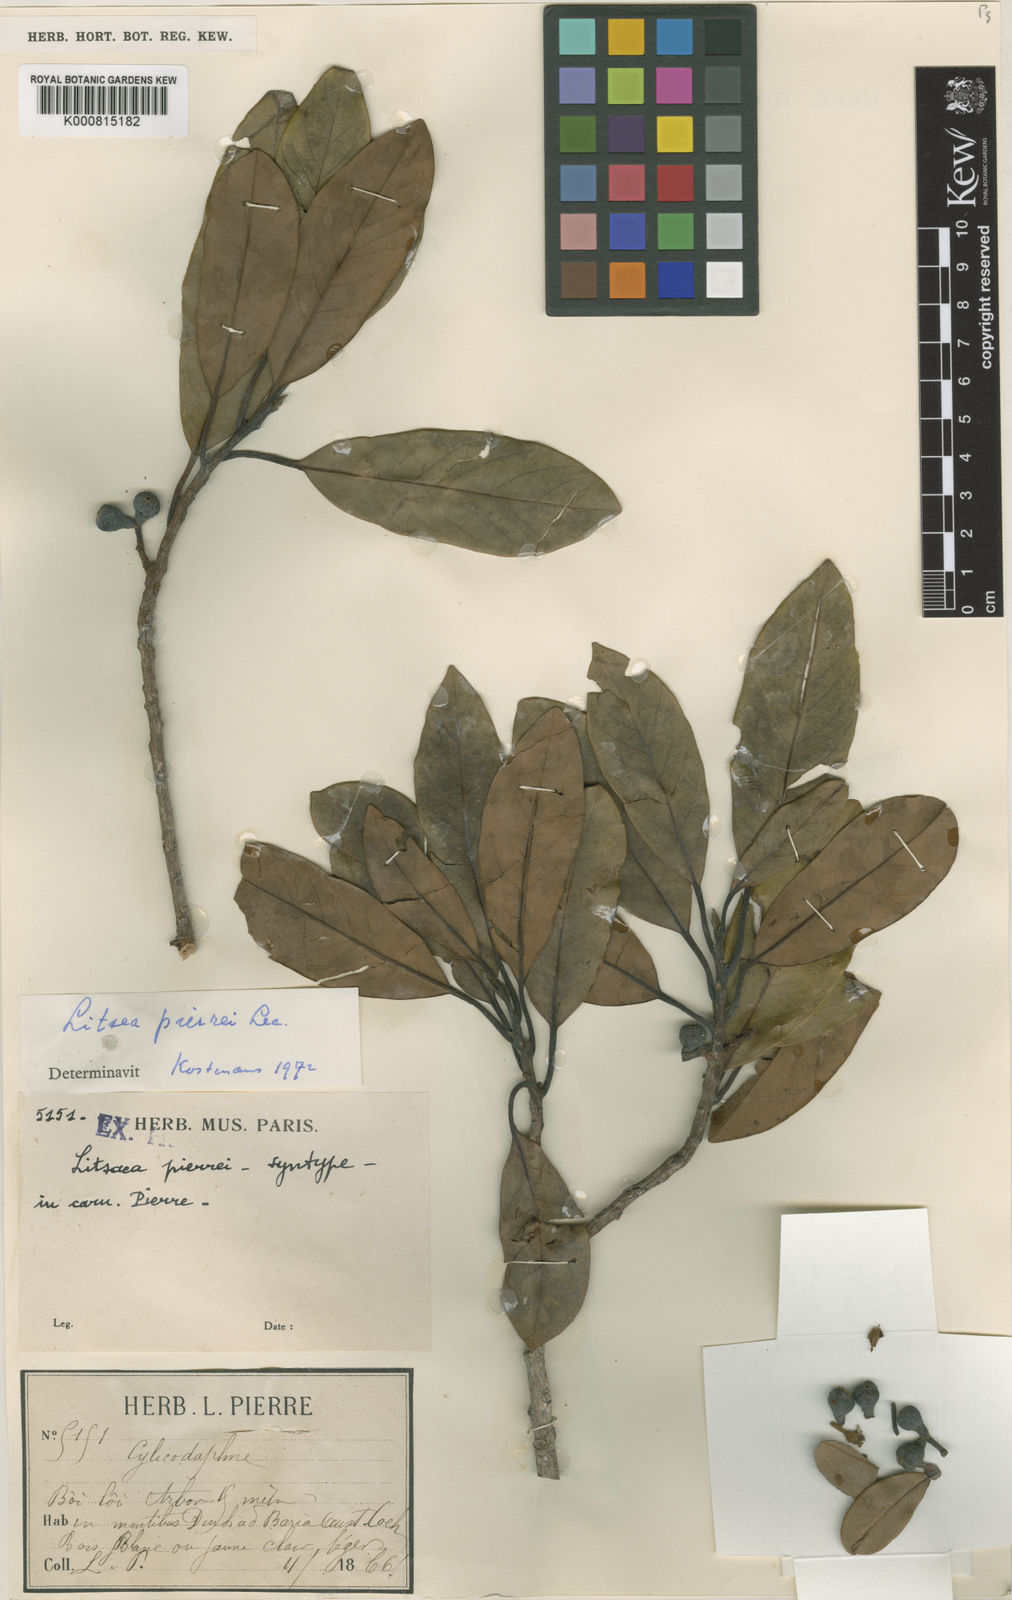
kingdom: Plantae
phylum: Tracheophyta
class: Magnoliopsida
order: Laurales
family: Lauraceae
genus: Litsea
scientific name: Litsea cambodiana
